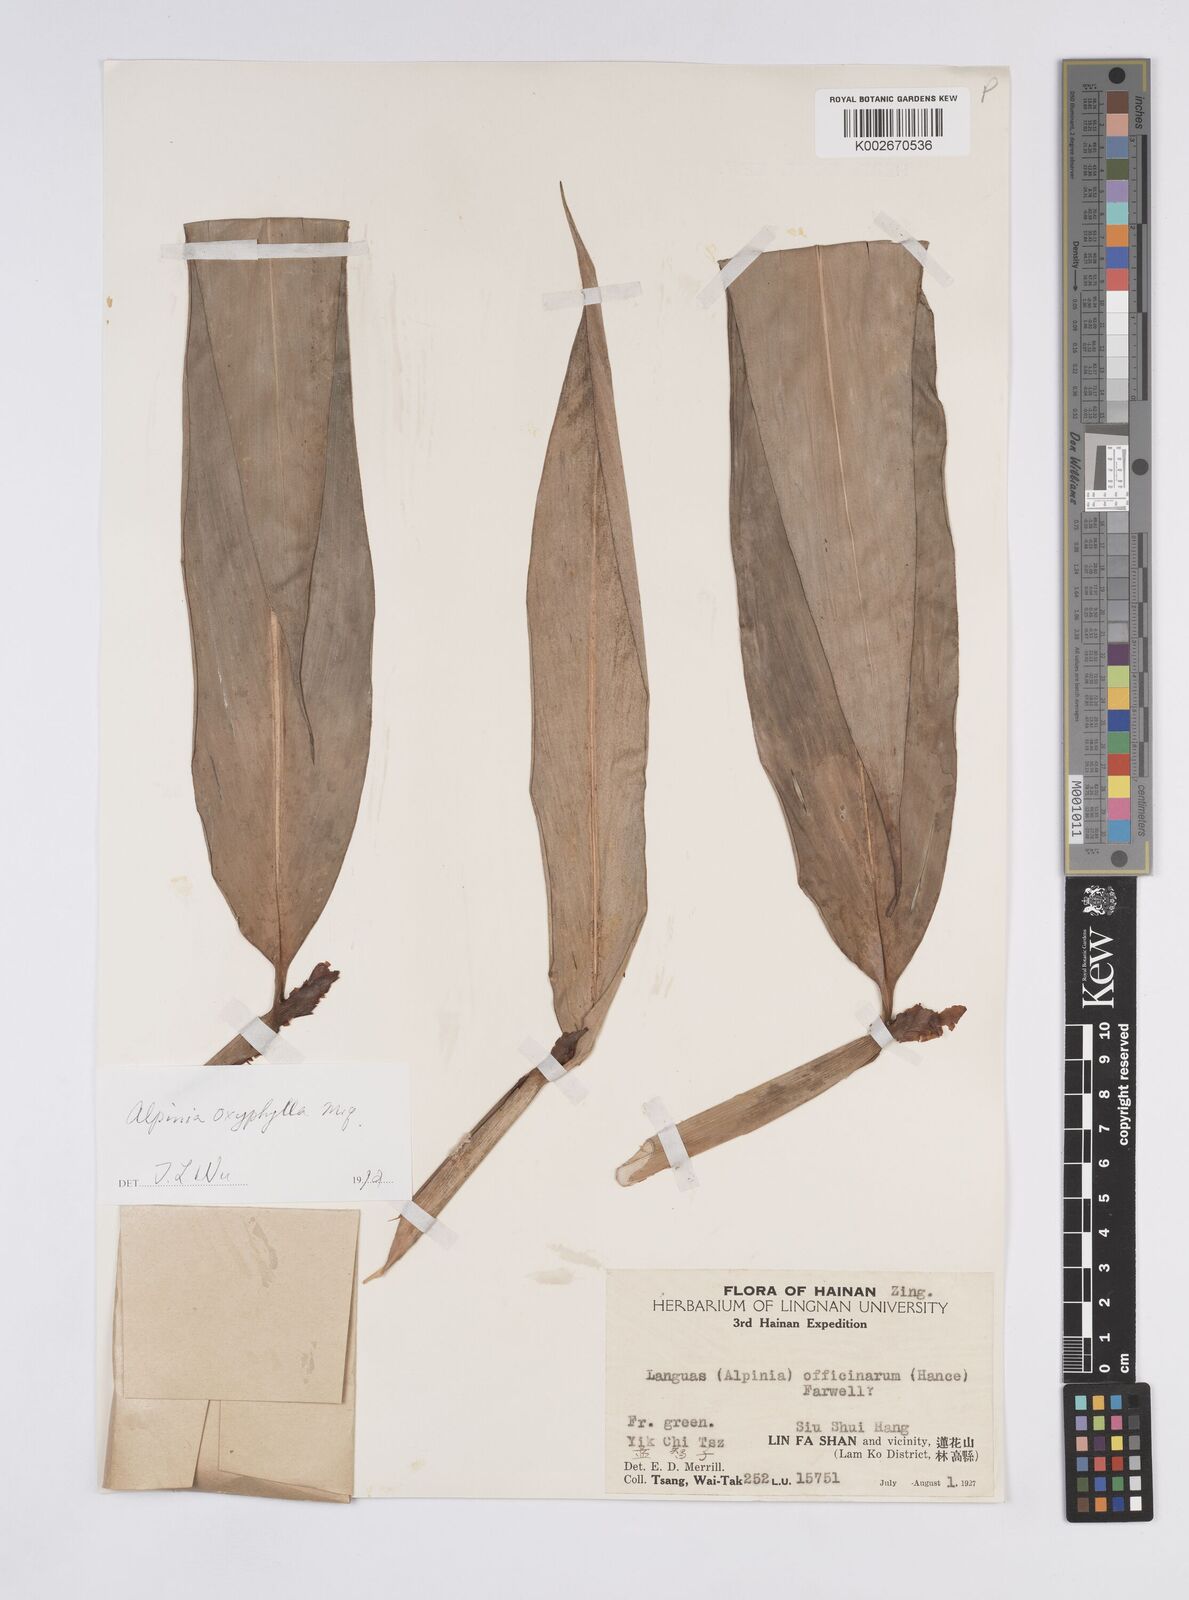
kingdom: Plantae
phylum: Tracheophyta
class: Liliopsida
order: Zingiberales
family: Zingiberaceae
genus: Alpinia
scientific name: Alpinia oxyphylla
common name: Sharp-leaf galangal
